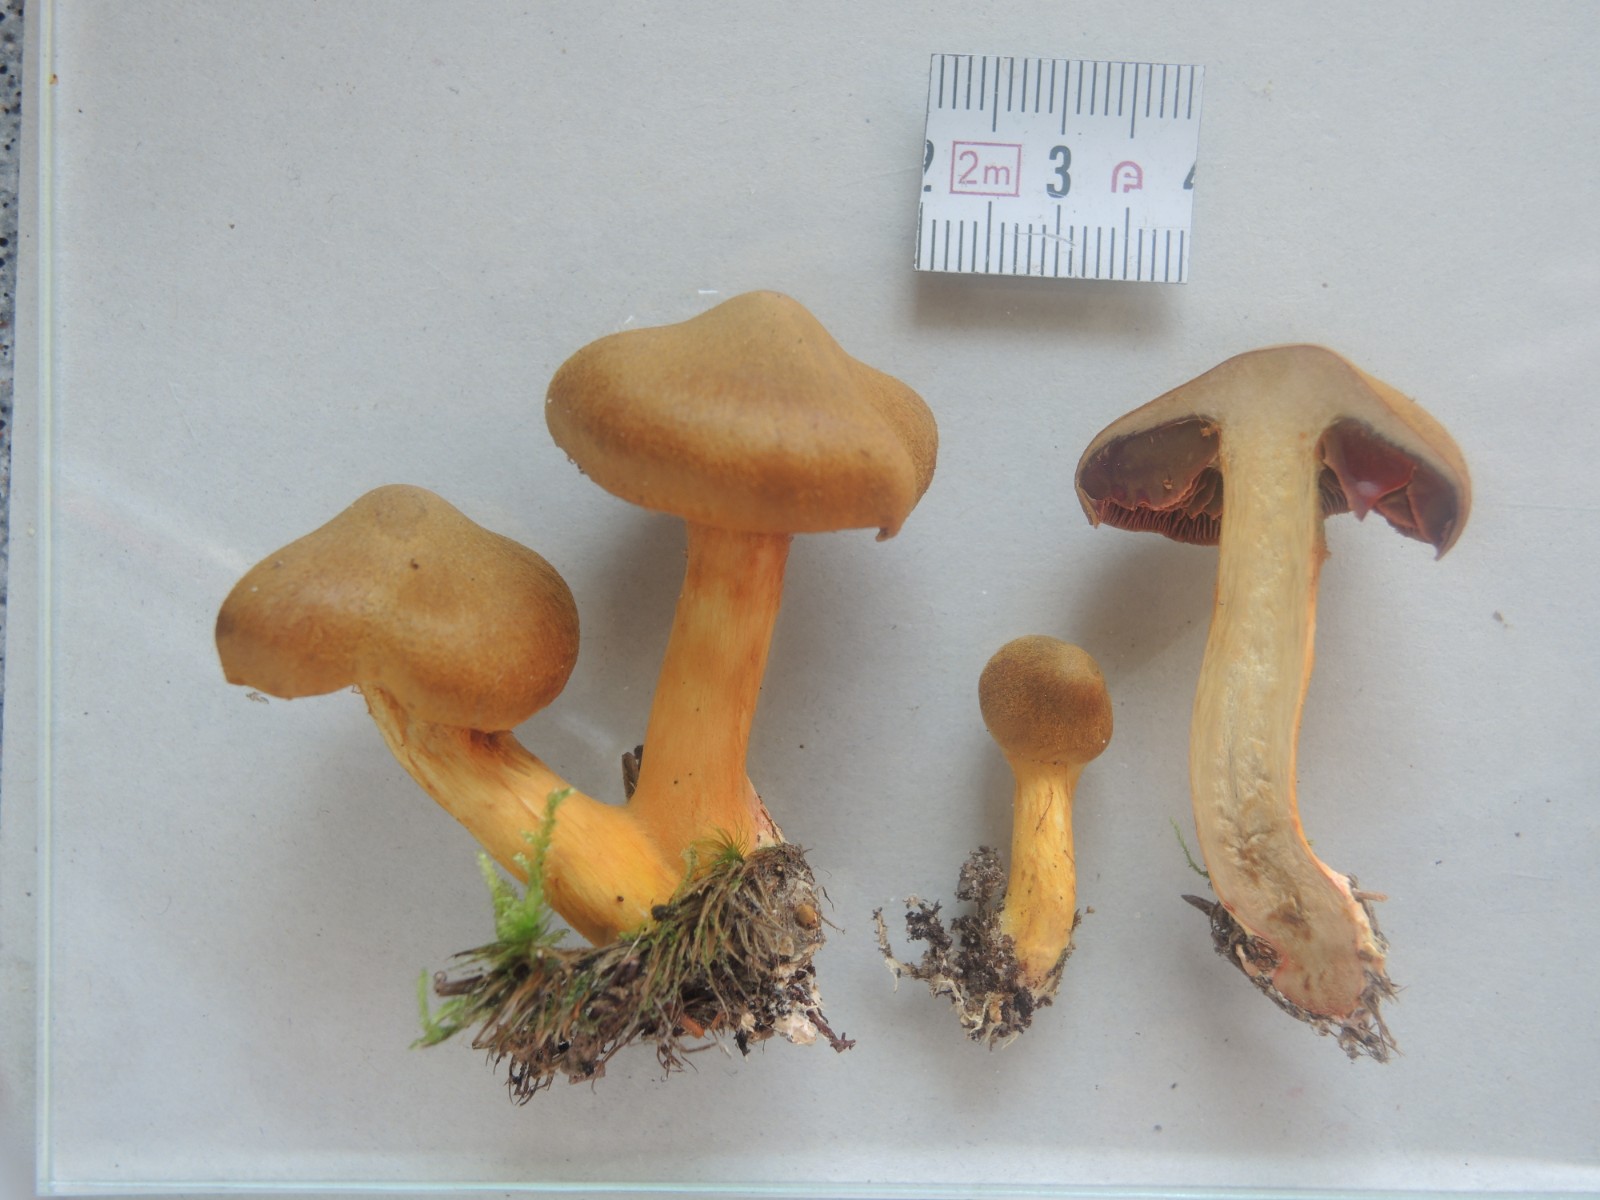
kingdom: Fungi
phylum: Basidiomycota
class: Agaricomycetes
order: Agaricales
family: Cortinariaceae
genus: Cortinarius
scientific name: Cortinarius
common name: cinnoberbladet slørhat
